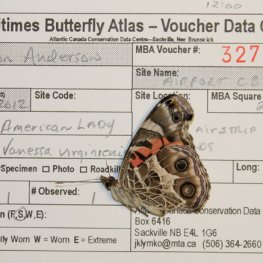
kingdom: Animalia
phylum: Arthropoda
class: Insecta
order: Lepidoptera
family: Nymphalidae
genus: Vanessa
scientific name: Vanessa virginiensis
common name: American Lady
